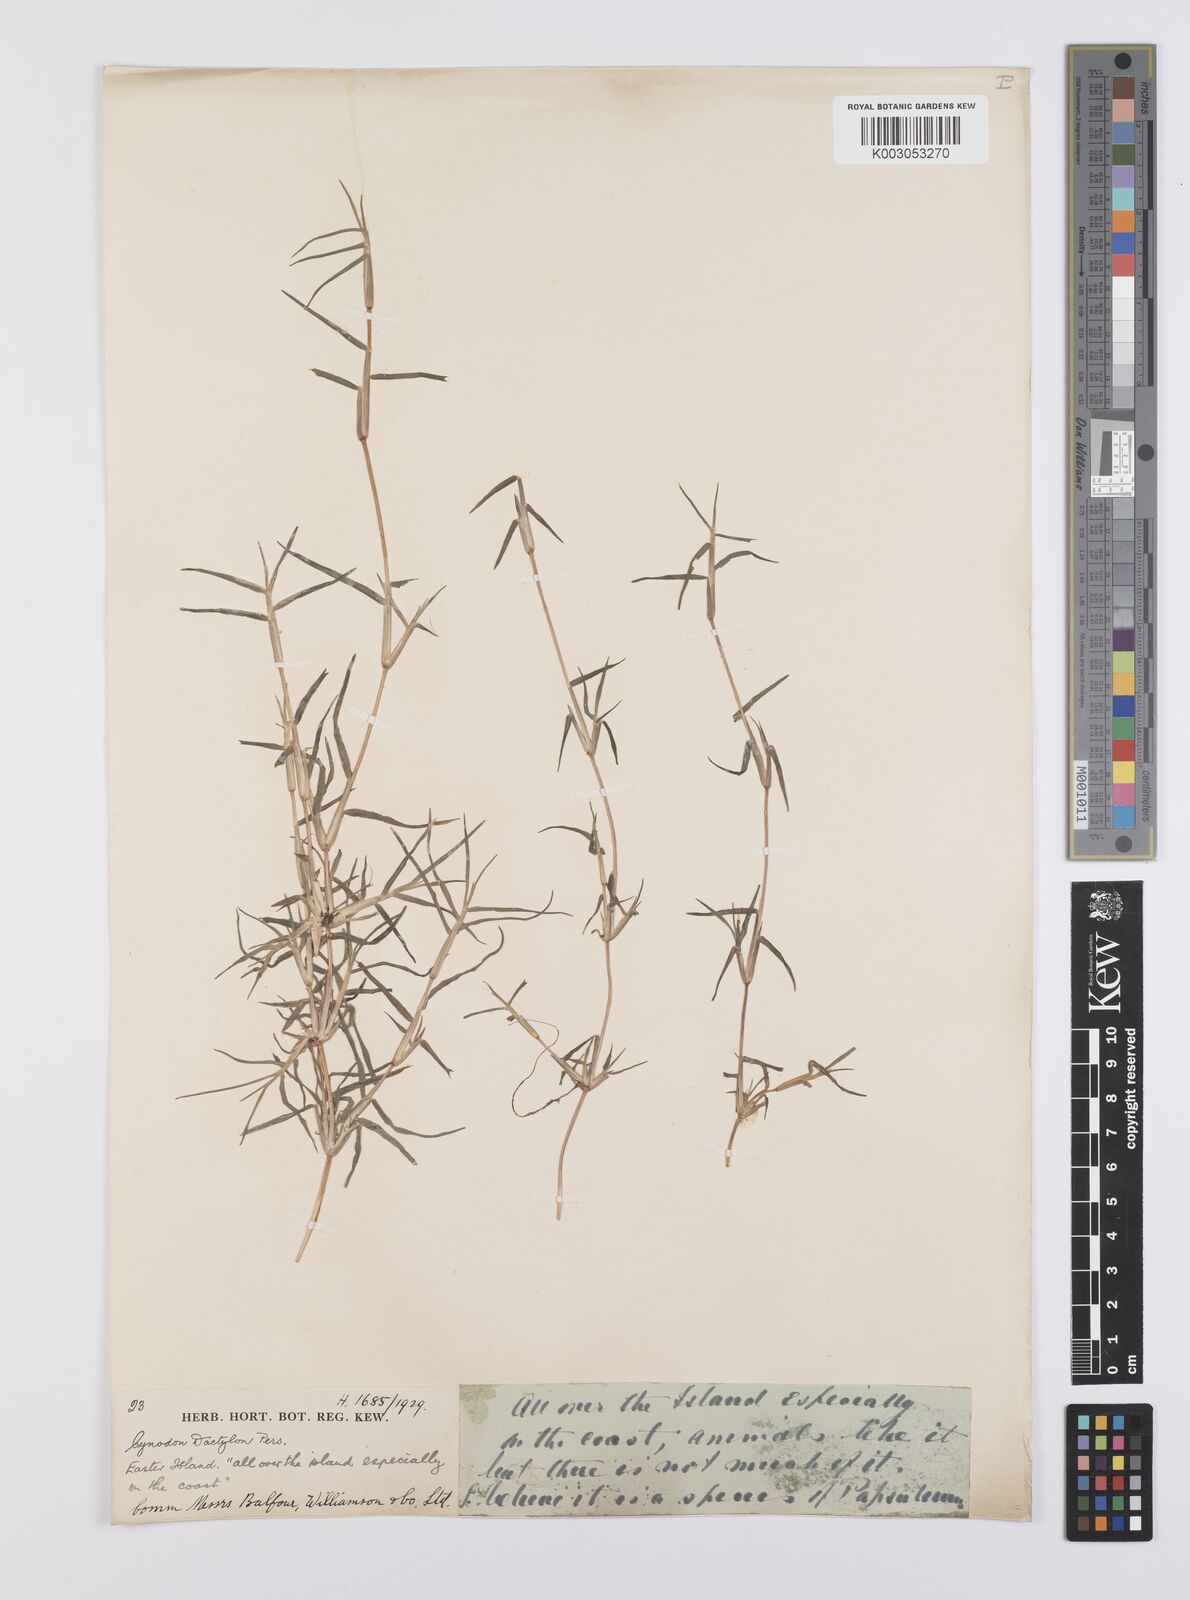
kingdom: Plantae
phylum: Tracheophyta
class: Liliopsida
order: Poales
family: Poaceae
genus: Cynodon
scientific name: Cynodon dactylon
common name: Bermuda grass
